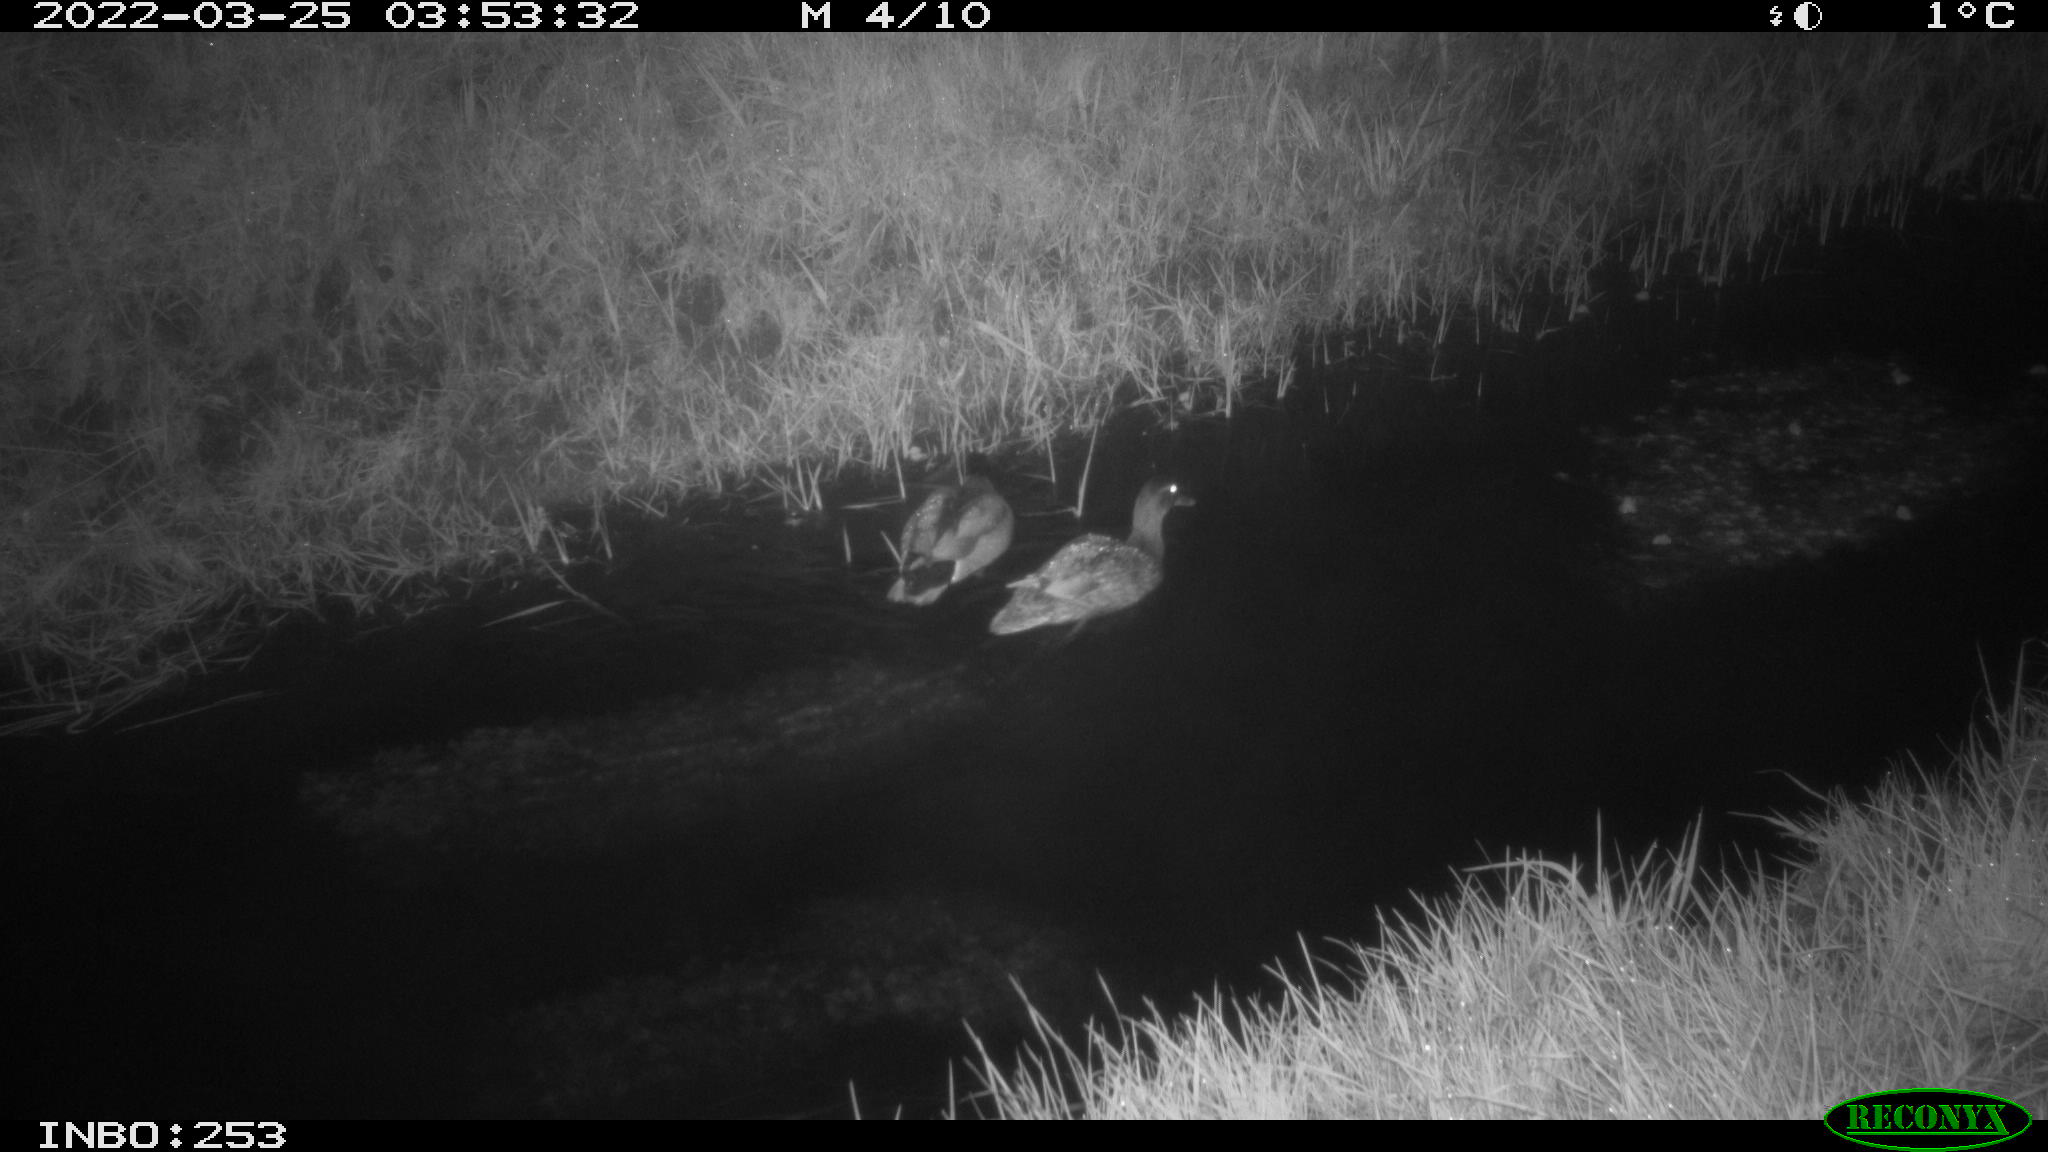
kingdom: Animalia
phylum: Chordata
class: Aves
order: Anseriformes
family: Anatidae
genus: Anas
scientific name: Anas platyrhynchos
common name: Mallard
